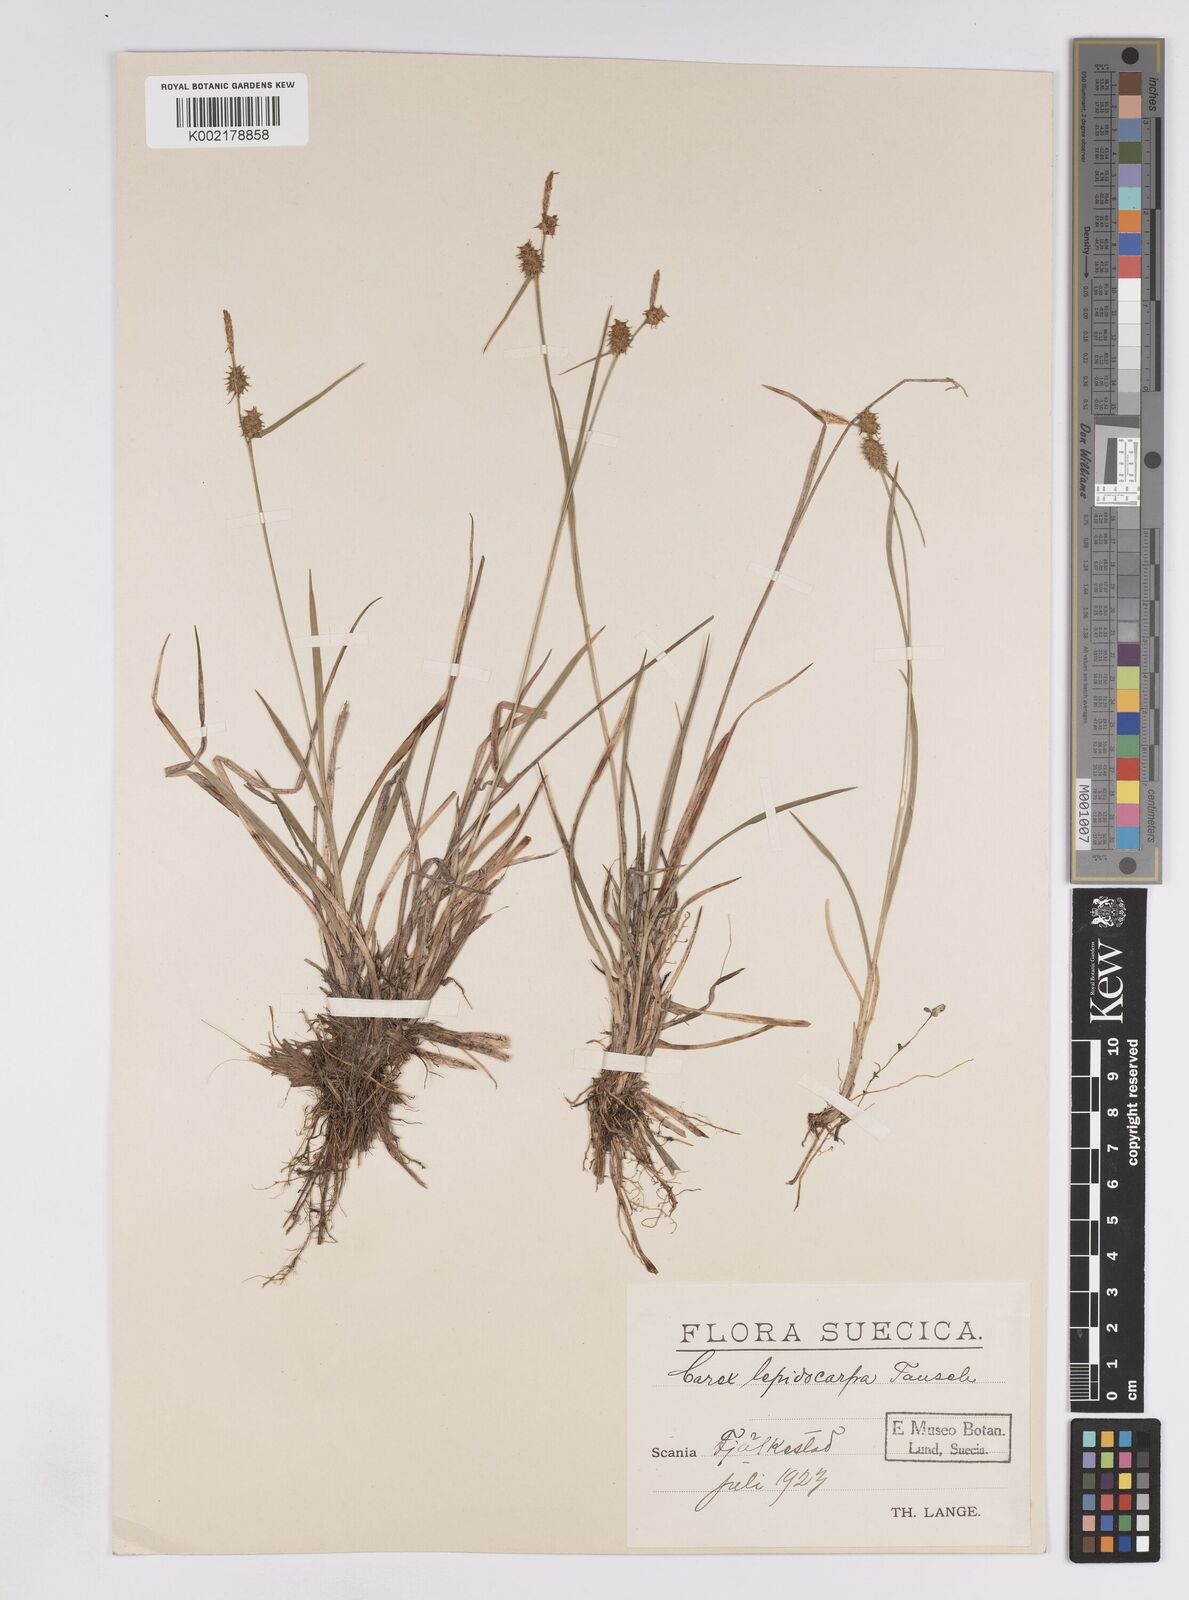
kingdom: Plantae
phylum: Tracheophyta
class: Liliopsida
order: Poales
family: Cyperaceae
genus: Carex
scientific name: Carex lepidocarpa
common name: Long-stalked yellow-sedge
